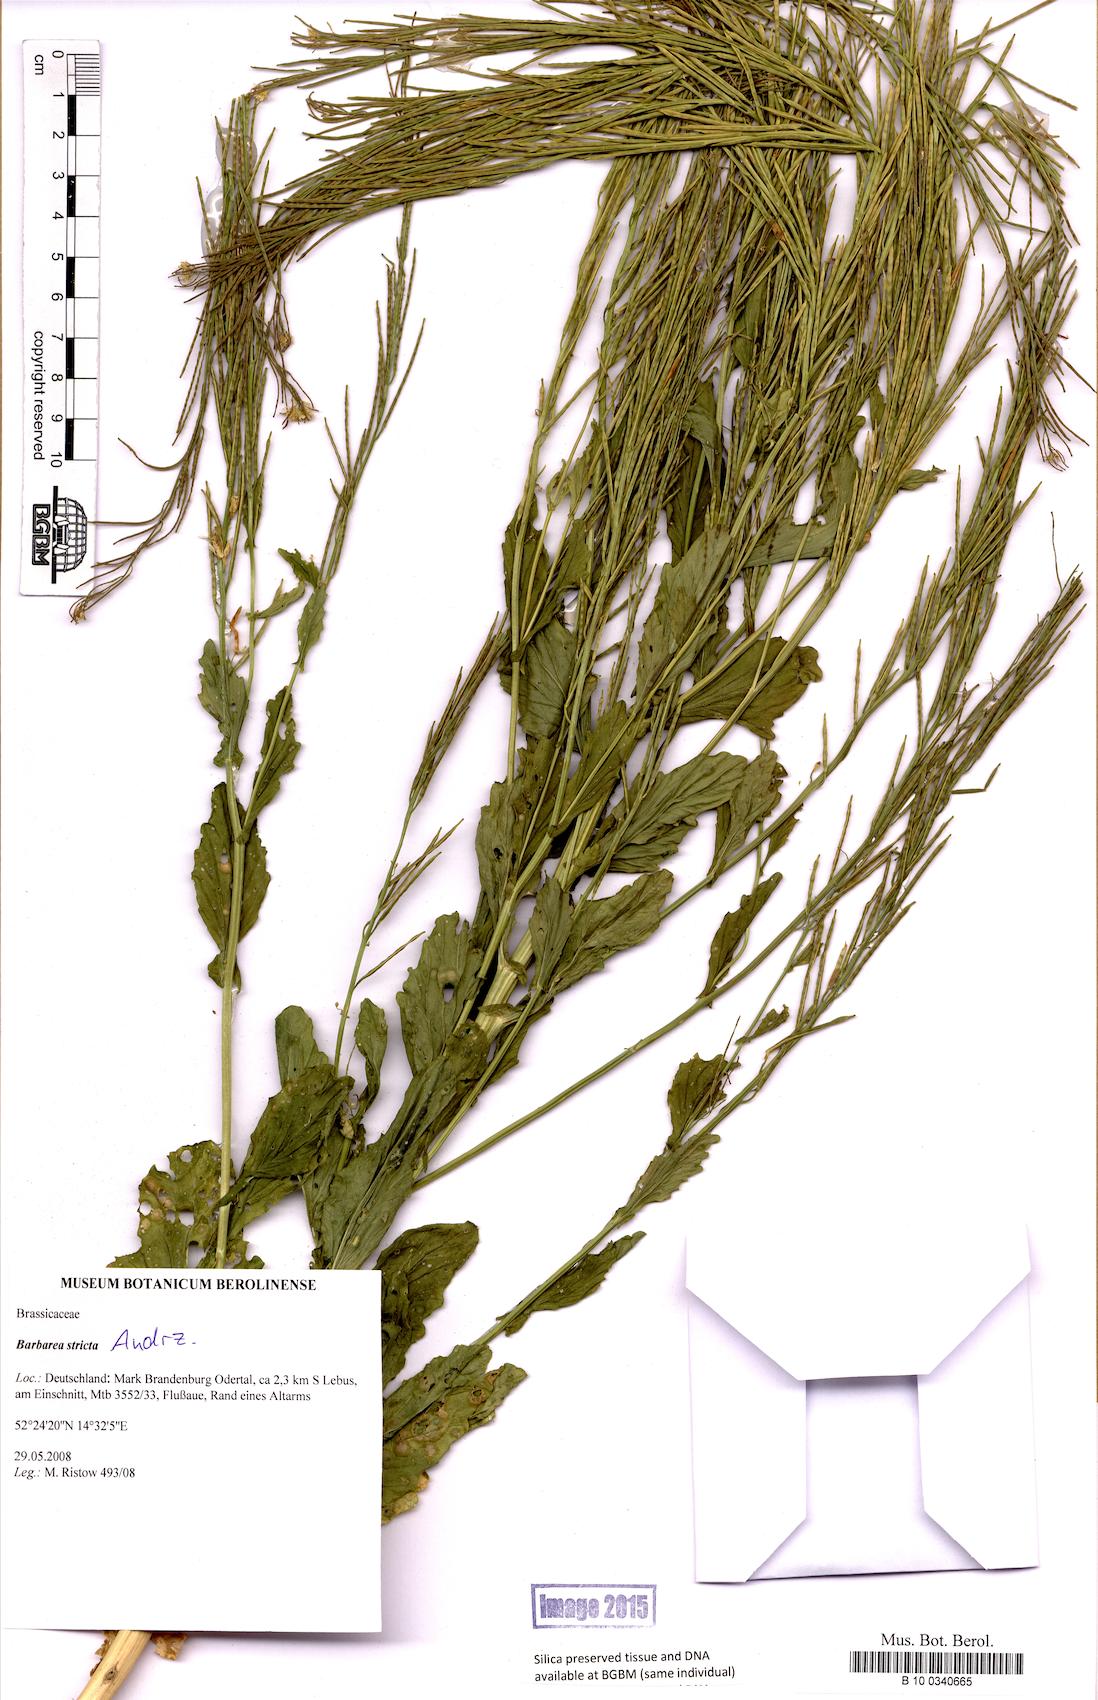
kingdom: Plantae
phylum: Tracheophyta
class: Magnoliopsida
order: Brassicales
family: Brassicaceae
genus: Barbarea
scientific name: Barbarea stricta
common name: Small-flowered winter-cress
